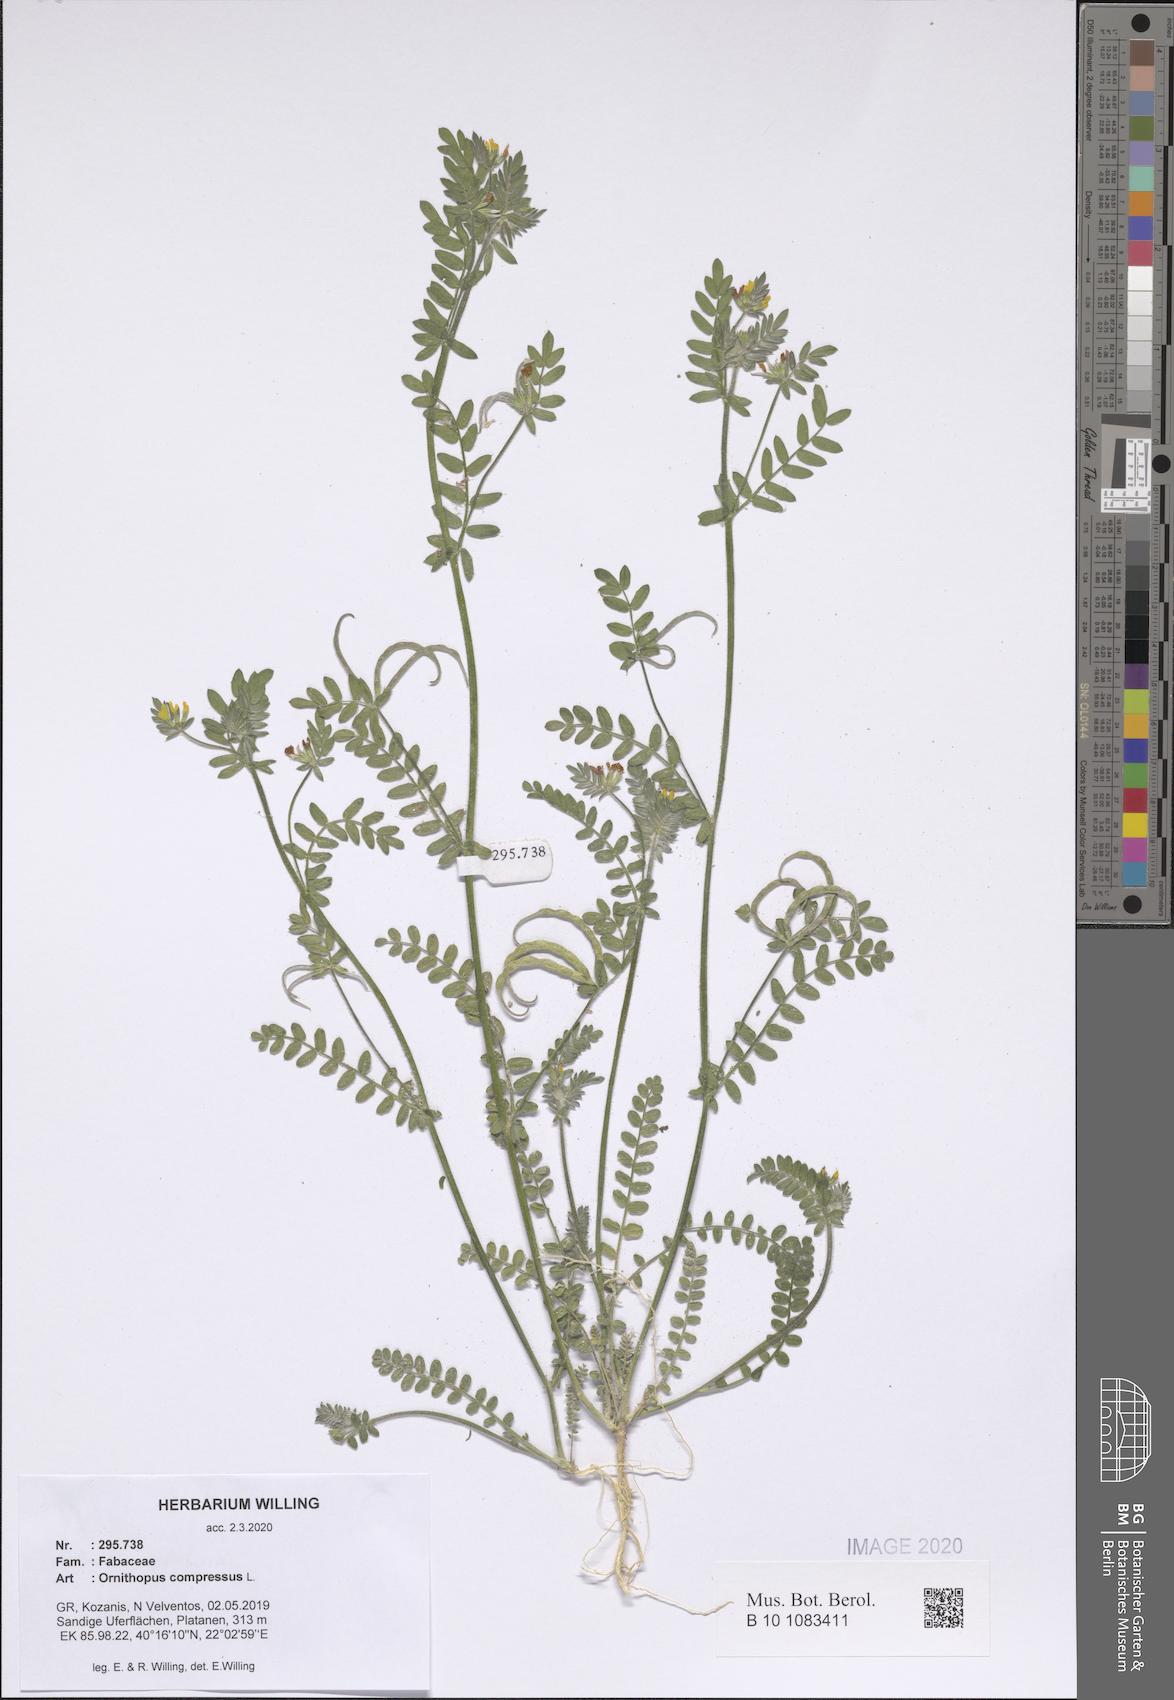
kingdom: Plantae
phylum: Tracheophyta
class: Magnoliopsida
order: Fabales
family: Fabaceae
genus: Ornithopus
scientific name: Ornithopus compressus
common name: Yellow serradella
